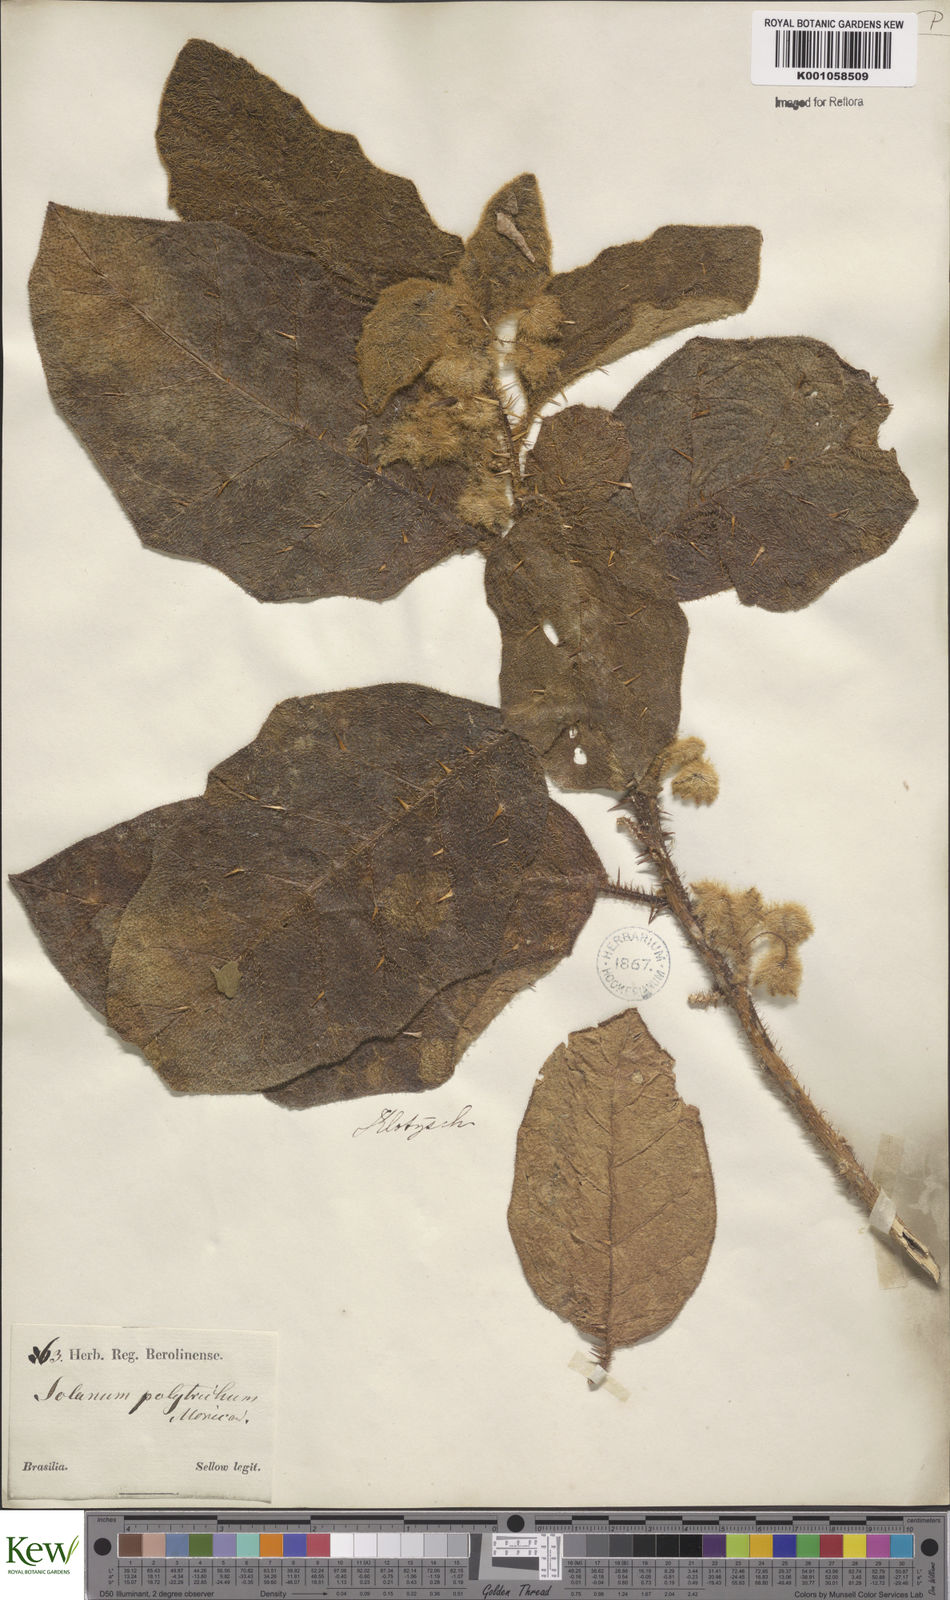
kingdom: Plantae
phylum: Tracheophyta
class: Magnoliopsida
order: Solanales
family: Solanaceae
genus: Solanum
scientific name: Solanum polytrichum
